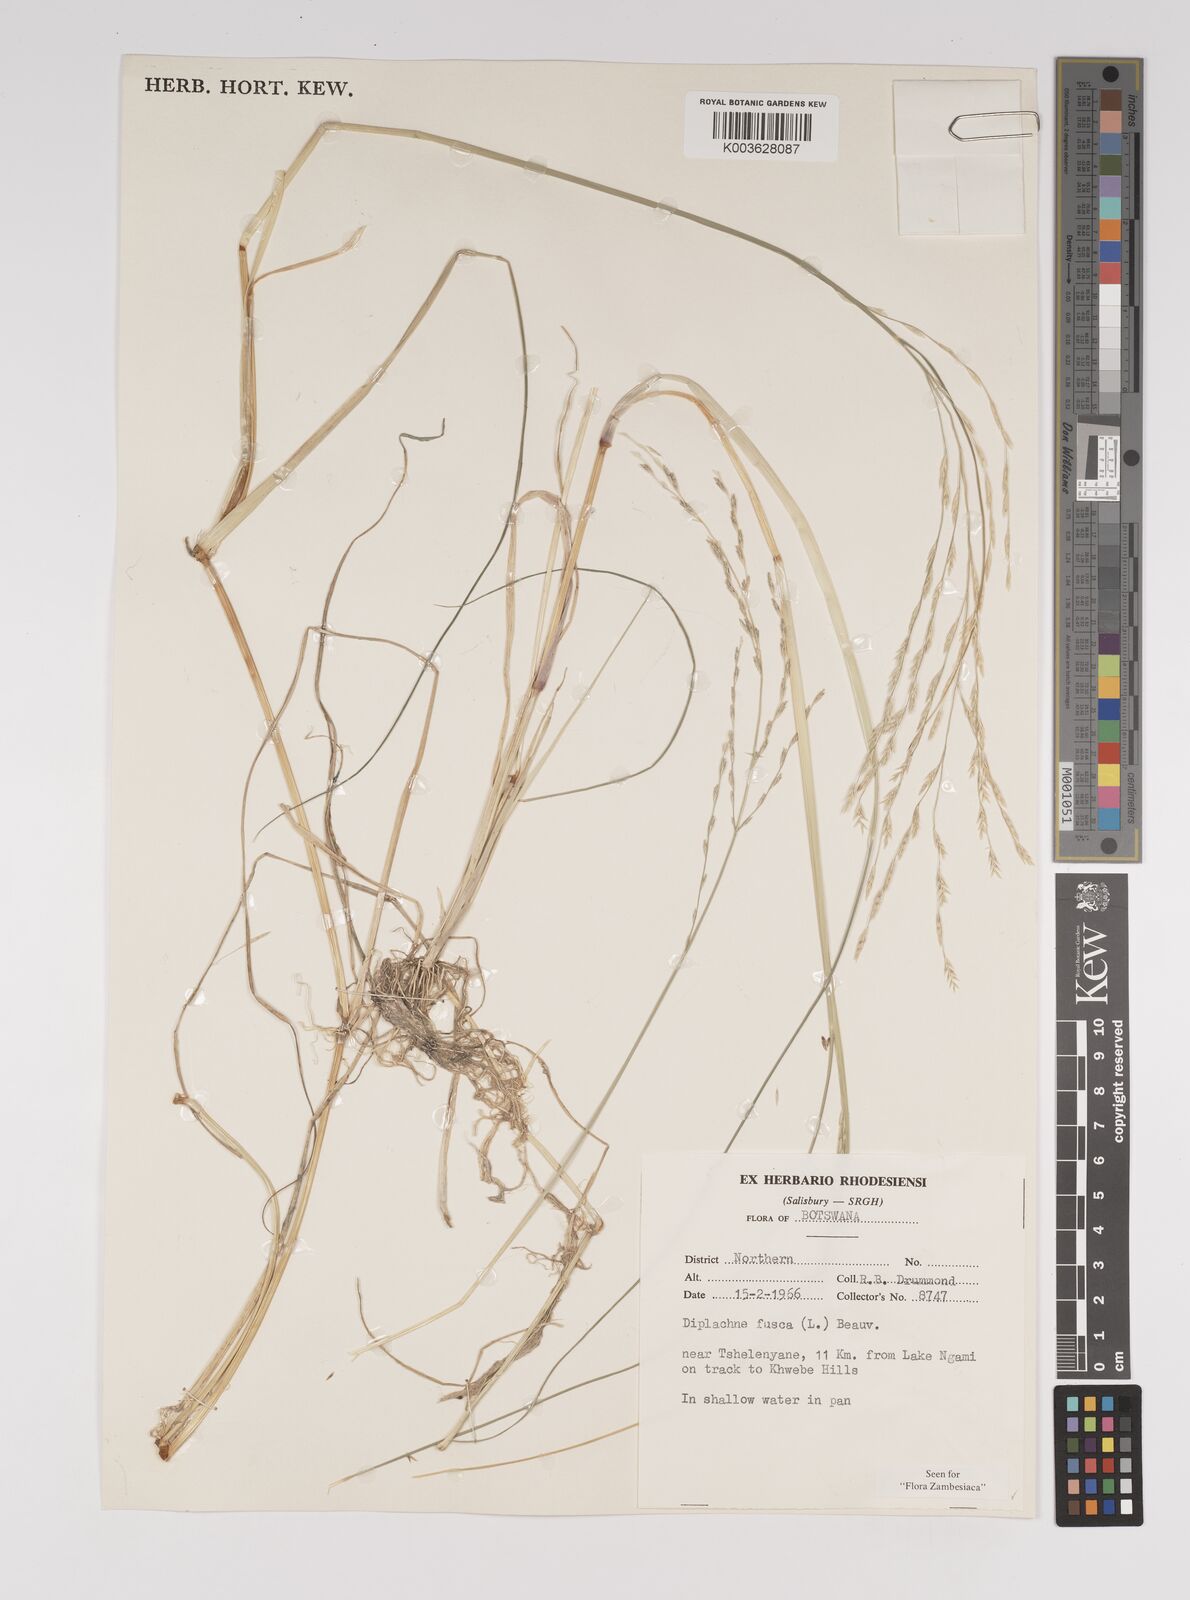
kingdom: Plantae
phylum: Tracheophyta
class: Liliopsida
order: Poales
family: Poaceae
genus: Diplachne
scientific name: Diplachne fusca
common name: Brown beetle grass
